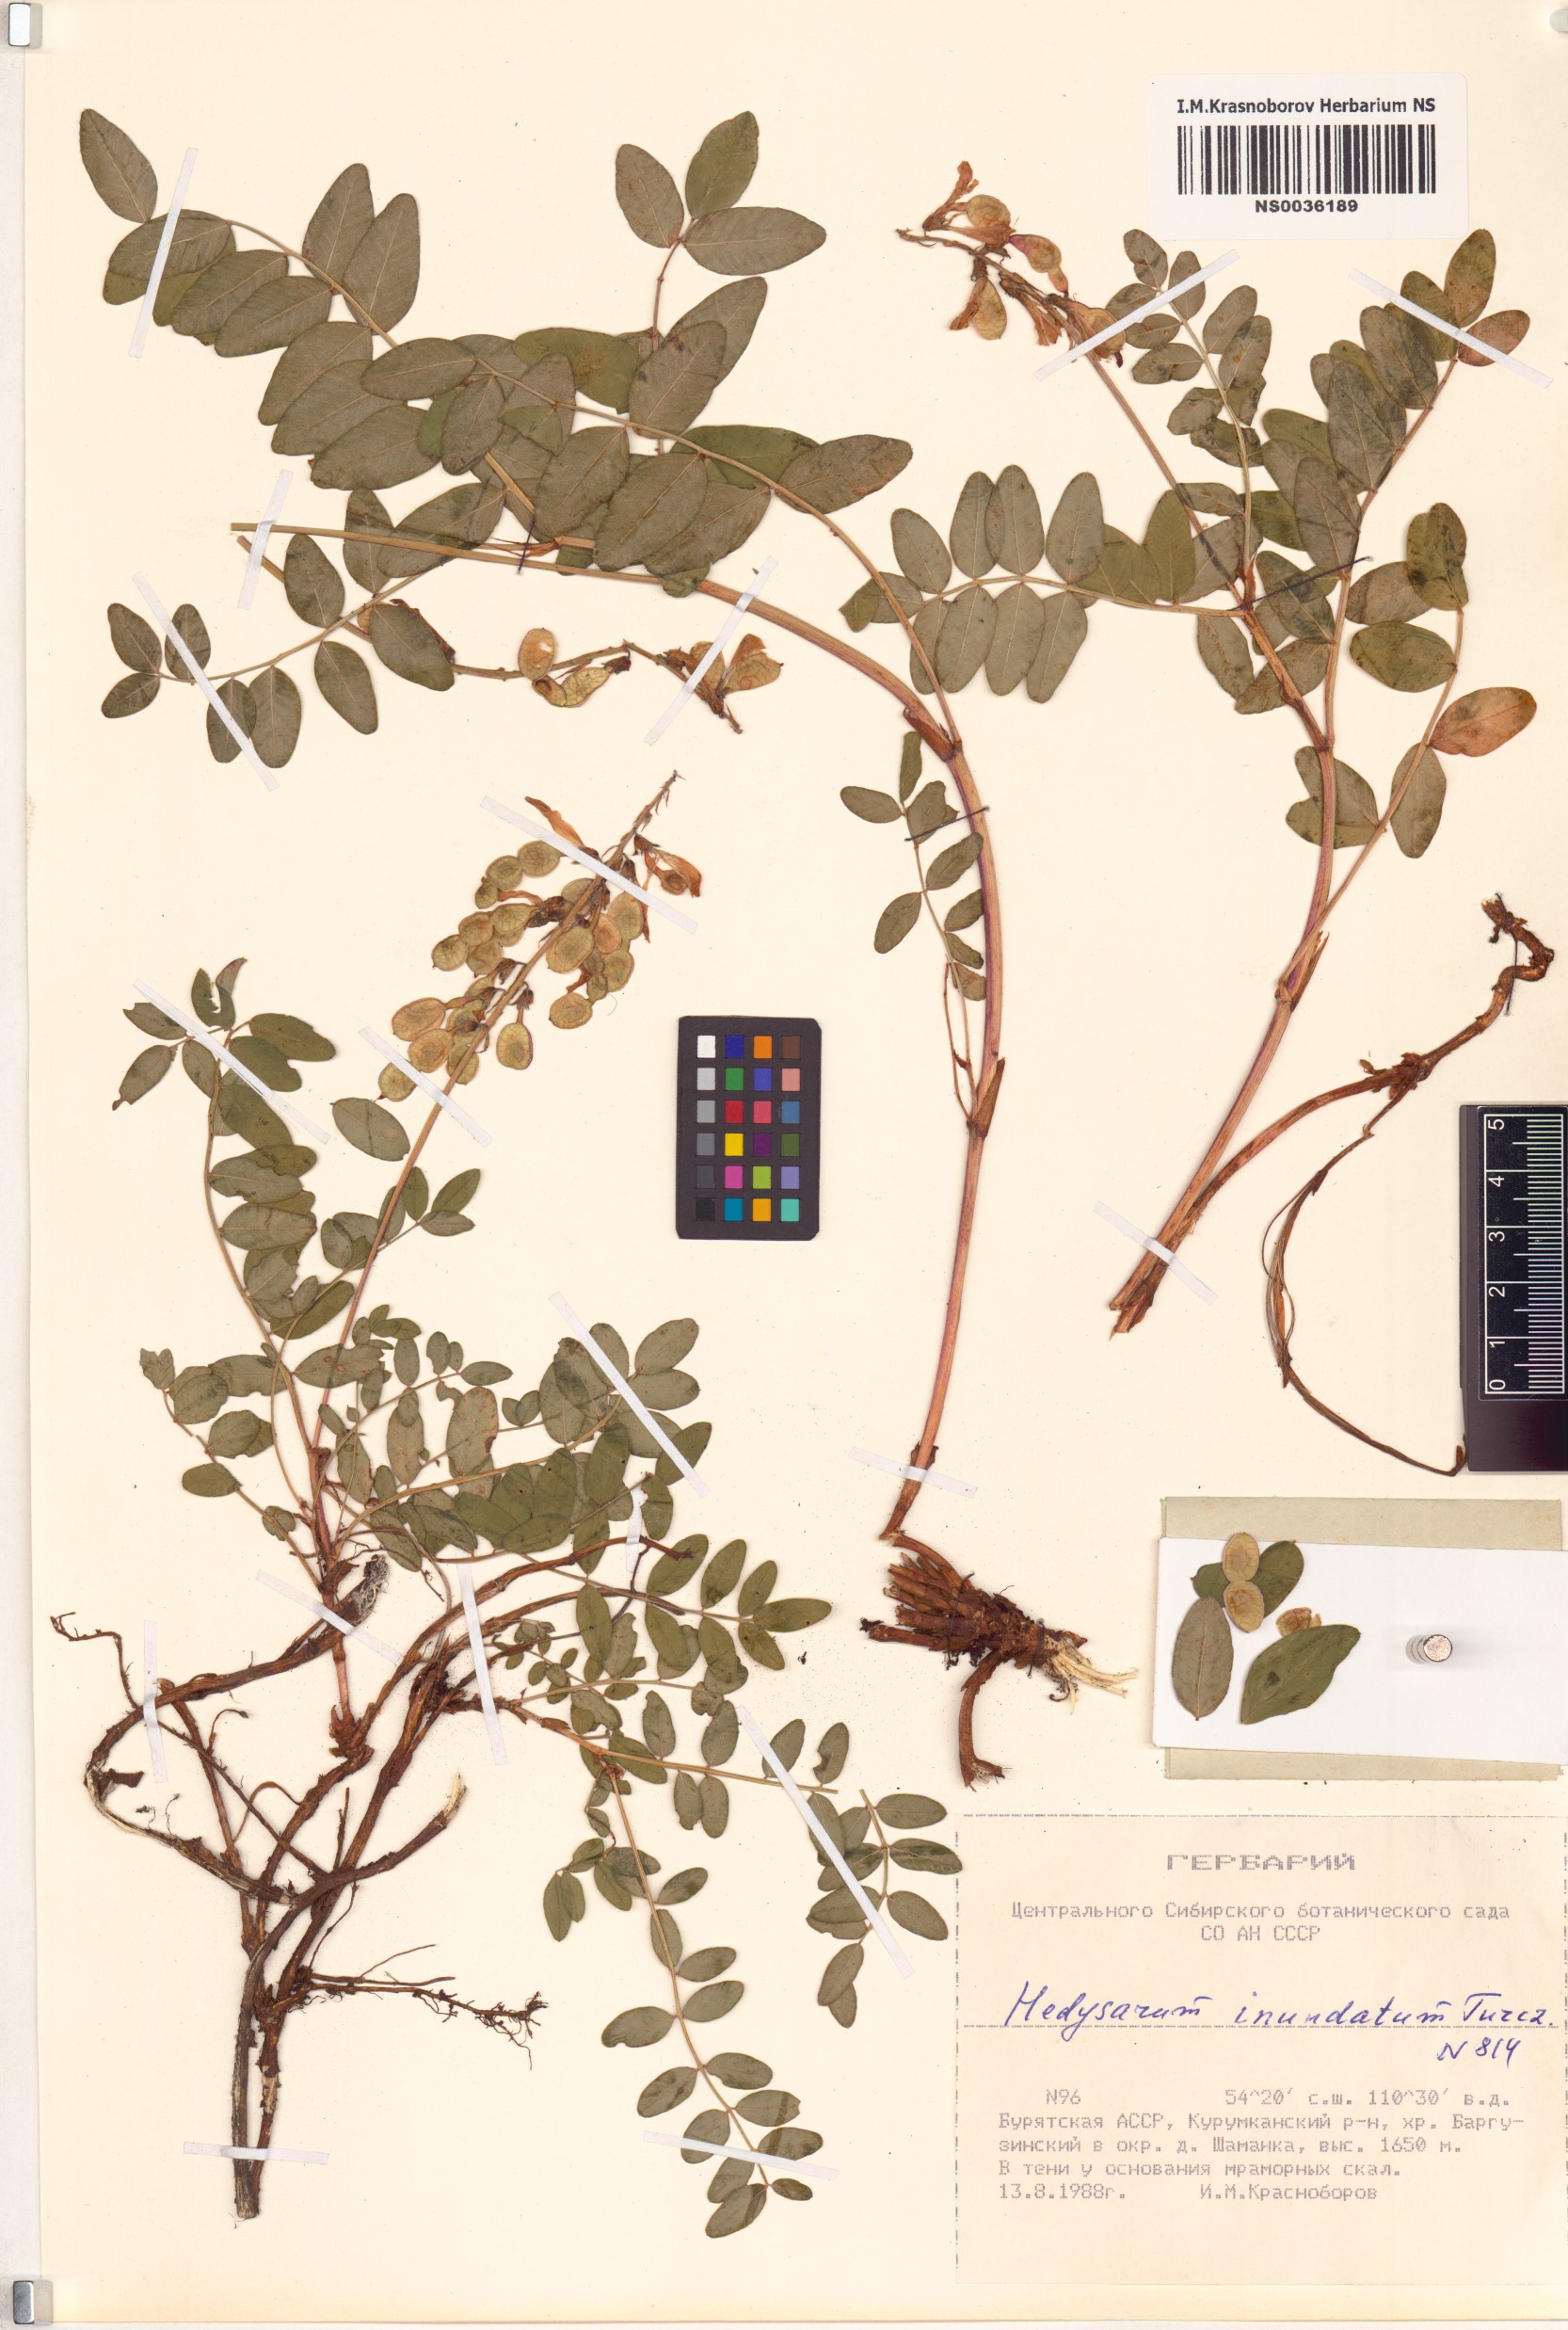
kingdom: Plantae
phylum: Tracheophyta
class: Magnoliopsida
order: Fabales
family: Fabaceae
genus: Hedysarum
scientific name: Hedysarum inundatum
